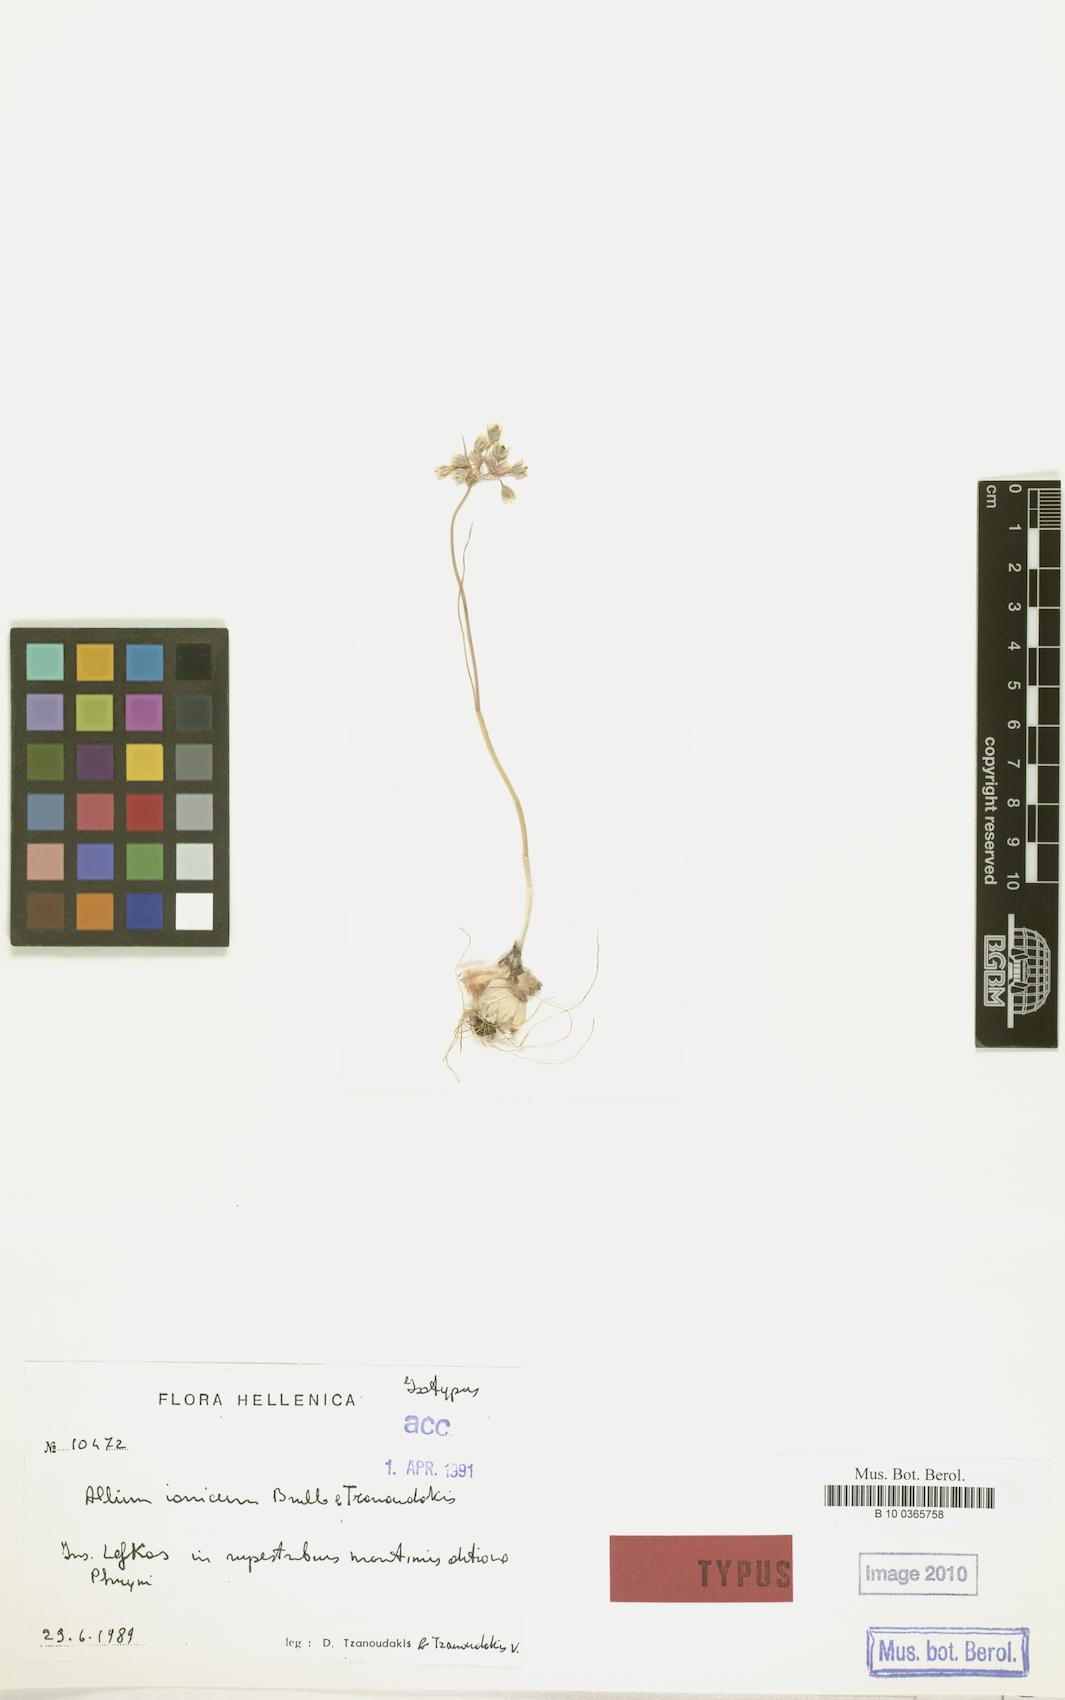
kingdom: Plantae
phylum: Tracheophyta
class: Liliopsida
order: Asparagales
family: Amaryllidaceae
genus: Allium
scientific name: Allium ionicum
